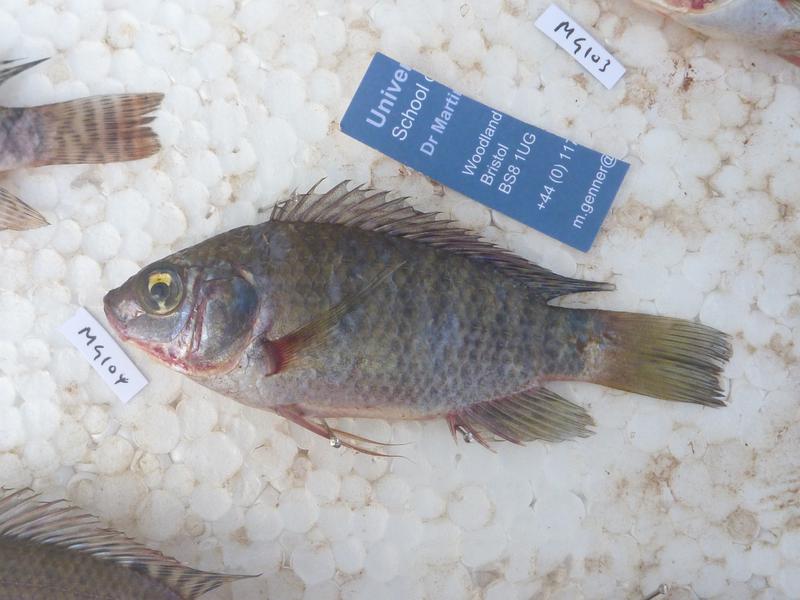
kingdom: Animalia
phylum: Chordata
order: Perciformes
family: Cichlidae
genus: Oreochromis
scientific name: Oreochromis leucostictus
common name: Blue spotted tilapia
